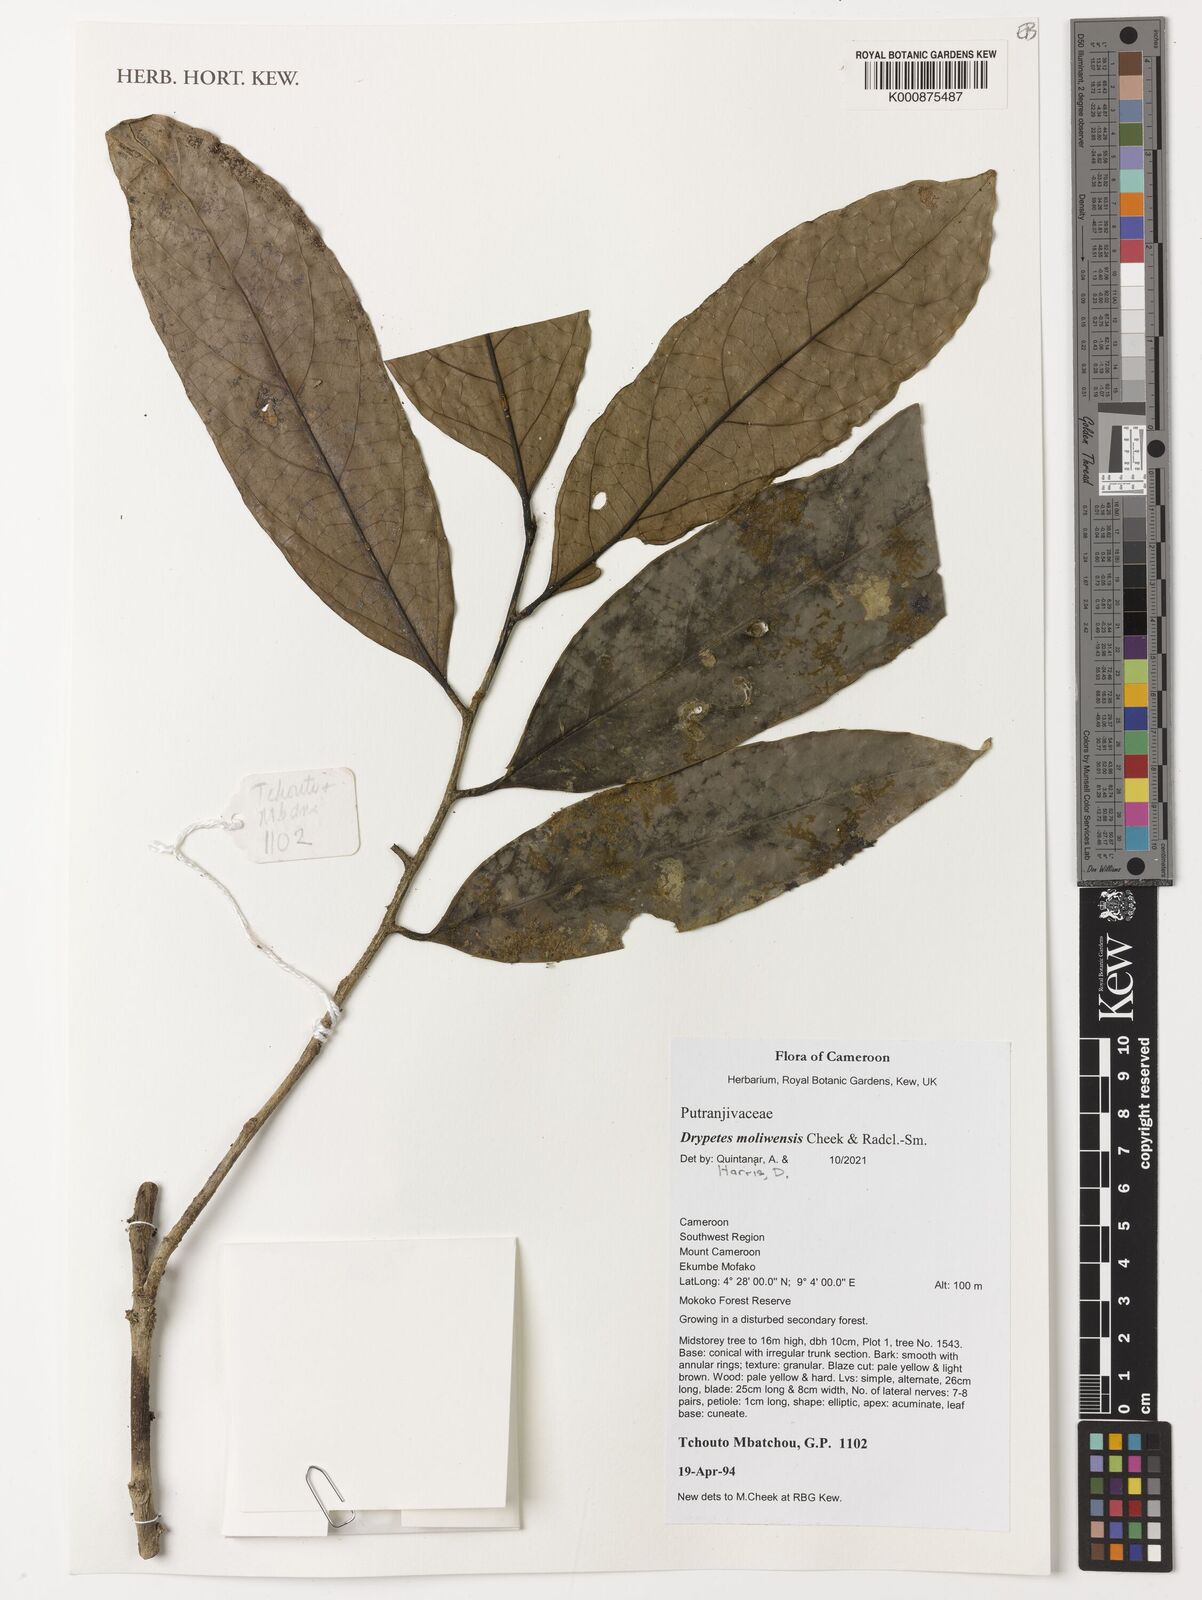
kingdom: Plantae
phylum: Tracheophyta
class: Magnoliopsida
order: Malpighiales
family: Putranjivaceae
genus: Drypetes
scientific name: Drypetes moliwensis
